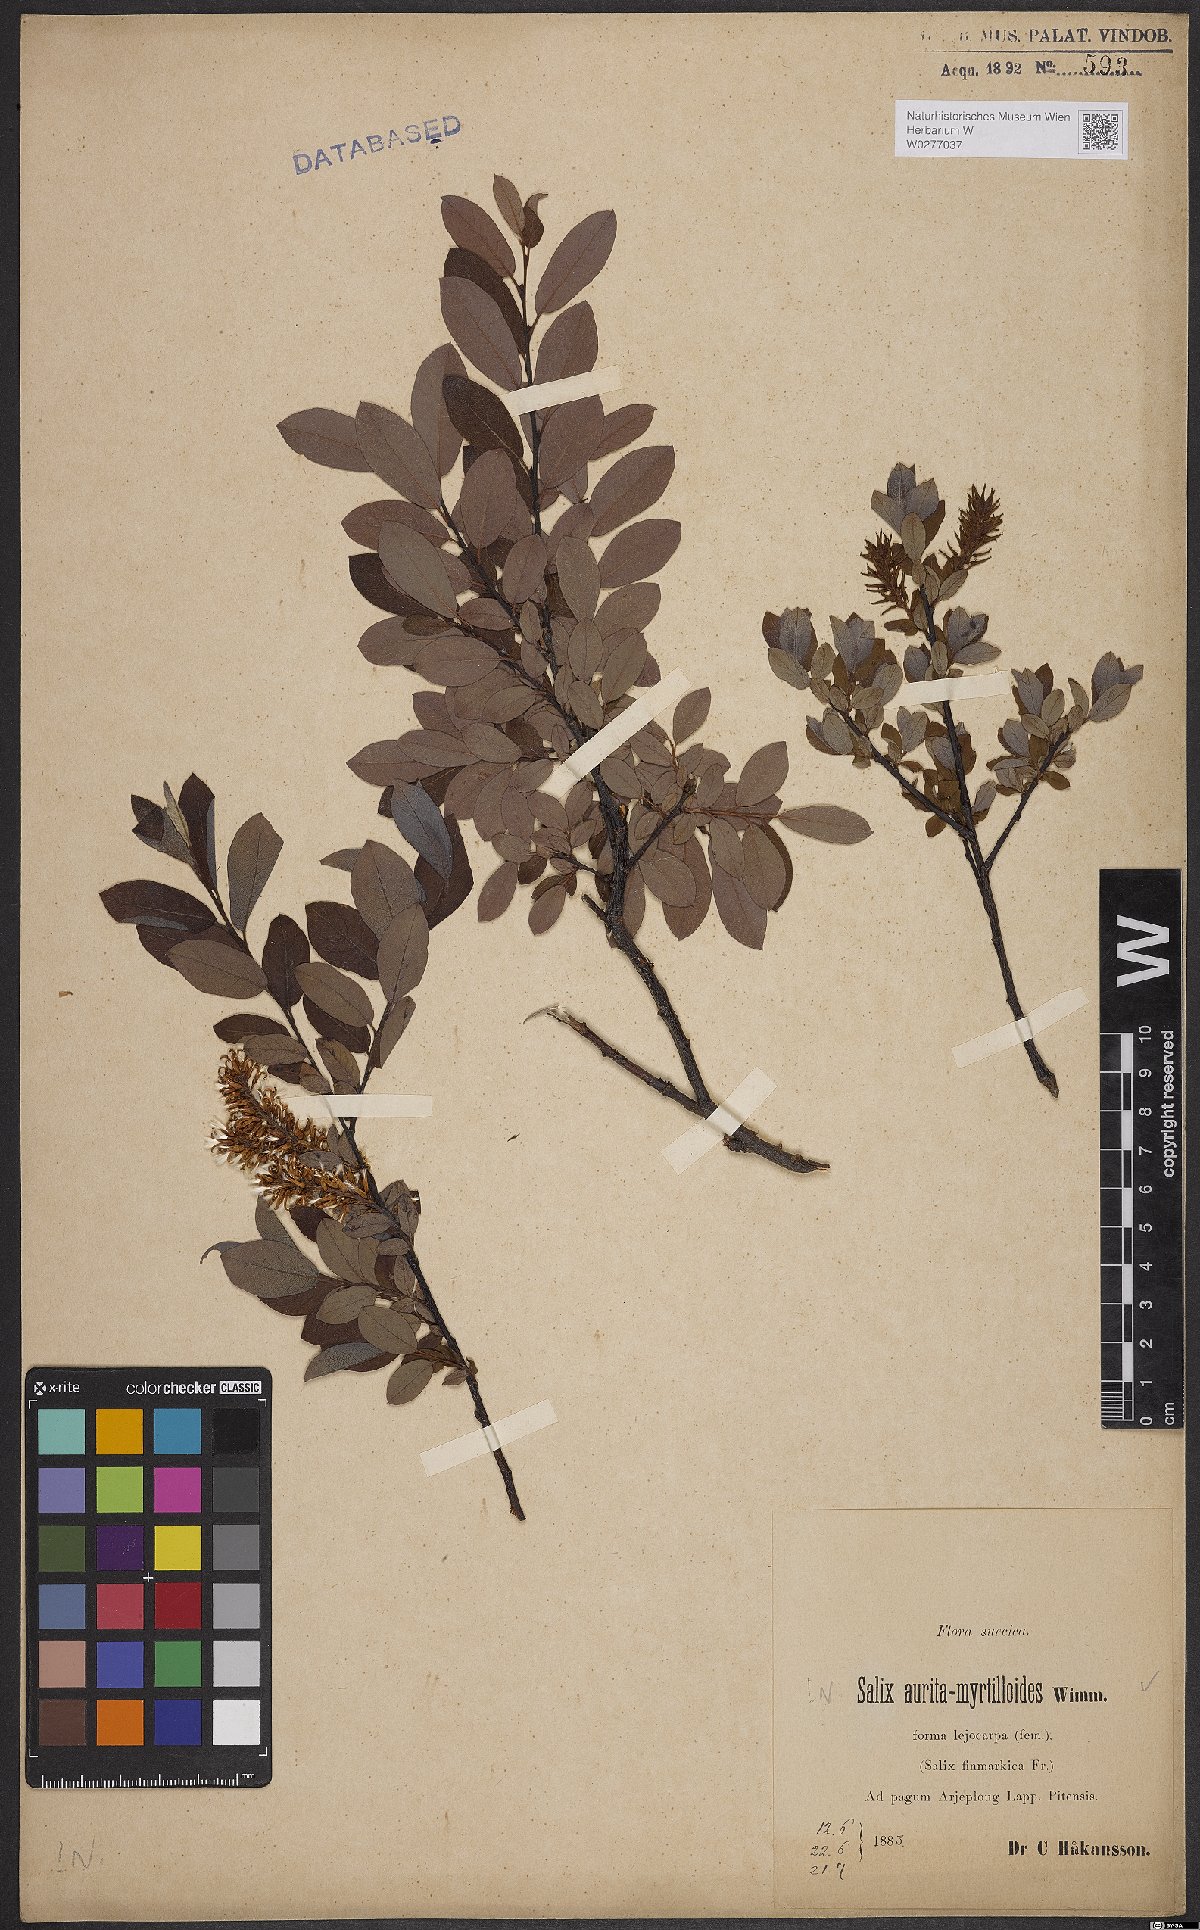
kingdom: Plantae
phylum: Tracheophyta
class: Magnoliopsida
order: Malpighiales
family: Salicaceae
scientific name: Salicaceae
